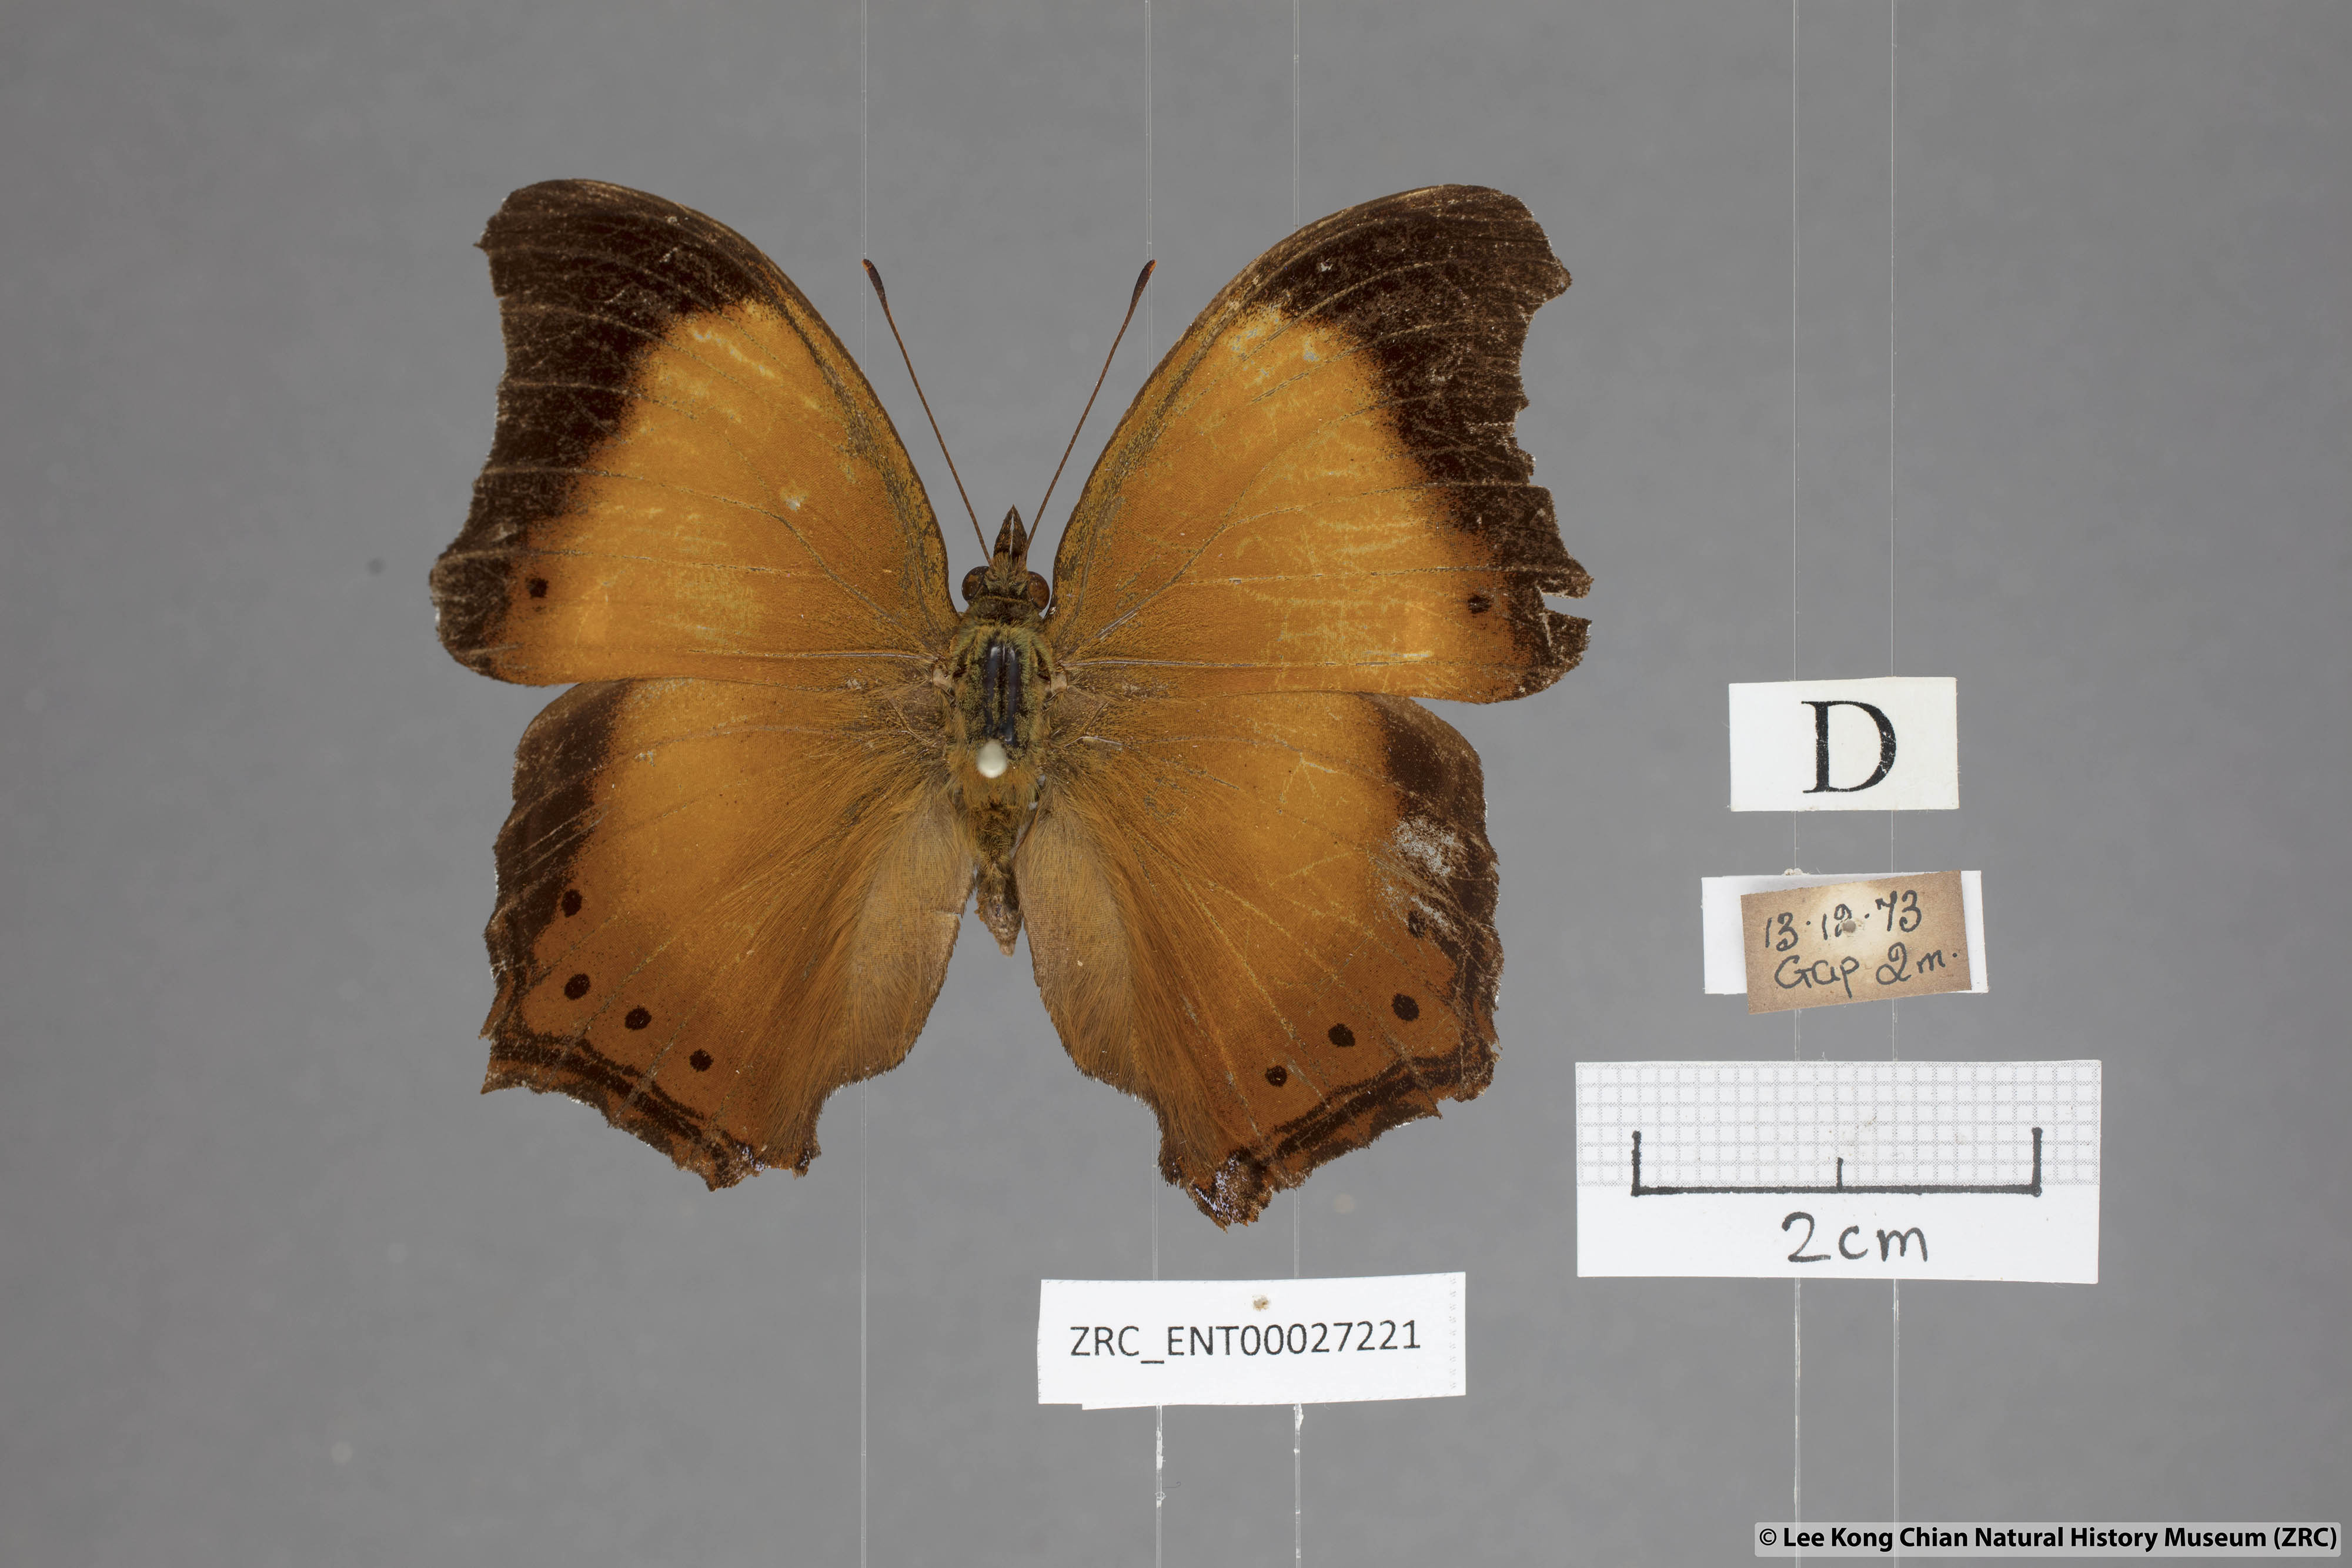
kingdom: Animalia
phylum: Arthropoda
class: Insecta
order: Lepidoptera
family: Nymphalidae
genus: Rhinopalpa
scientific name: Rhinopalpa polynice
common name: Wizard
